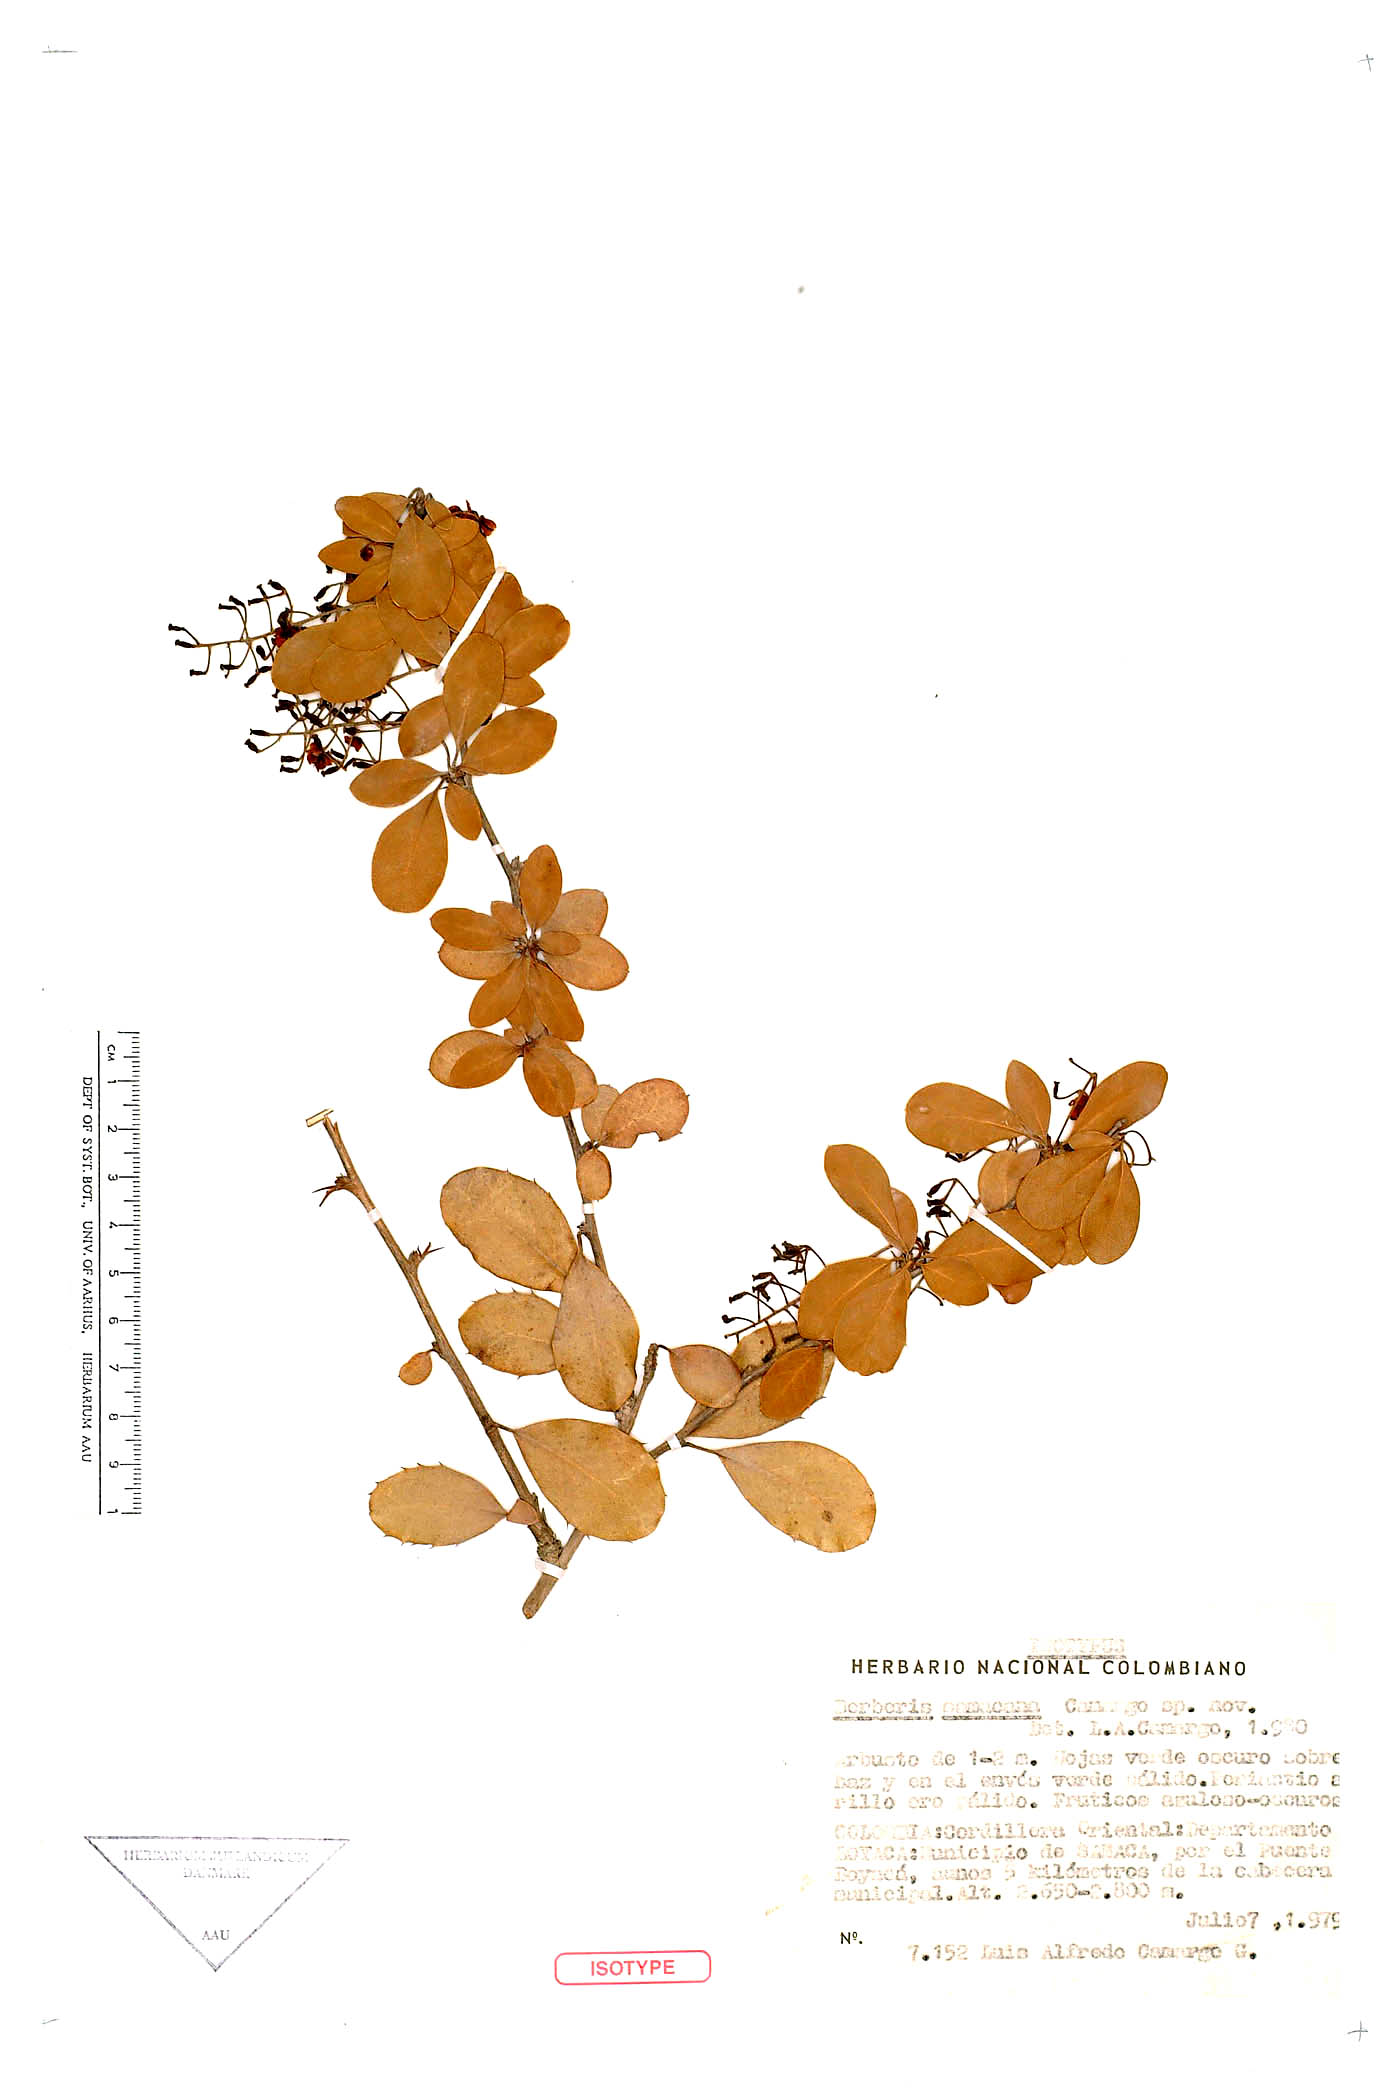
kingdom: Plantae
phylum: Tracheophyta
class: Magnoliopsida
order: Ranunculales
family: Berberidaceae
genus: Berberis
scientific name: Berberis samacana
